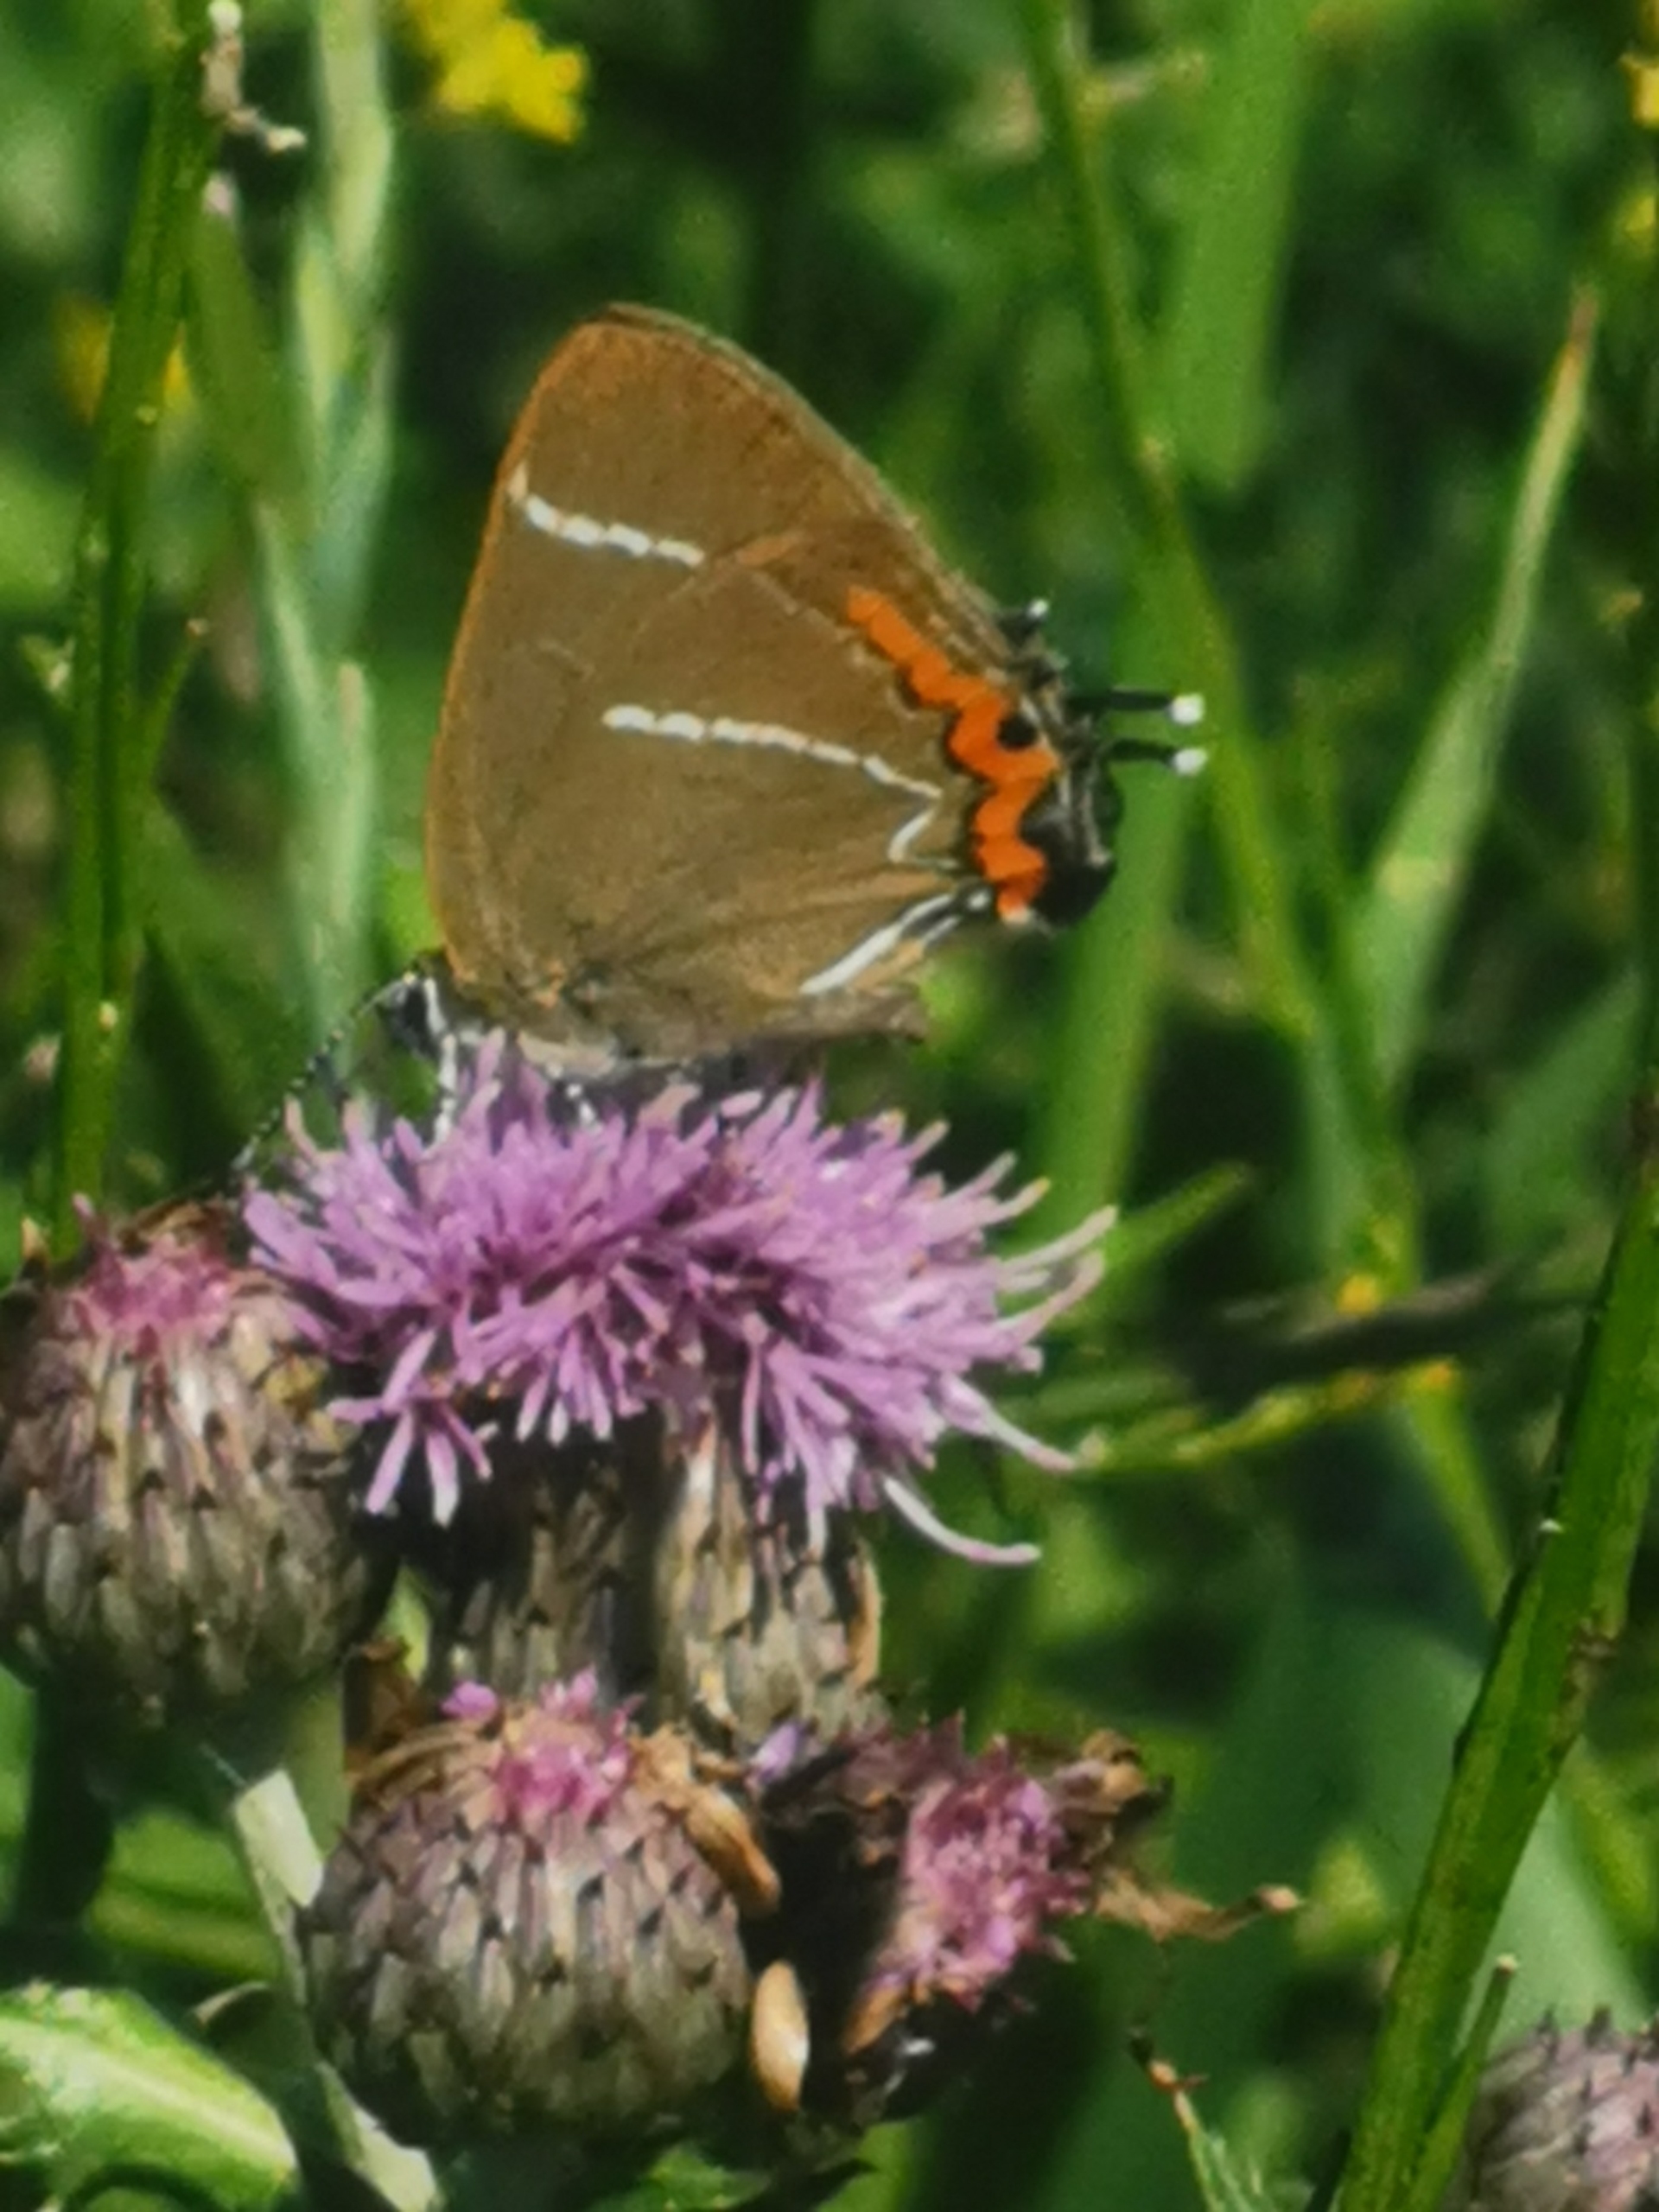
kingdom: Animalia
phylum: Arthropoda
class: Insecta
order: Lepidoptera
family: Lycaenidae
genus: Satyrium
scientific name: Satyrium w-album
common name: Det hvide W
